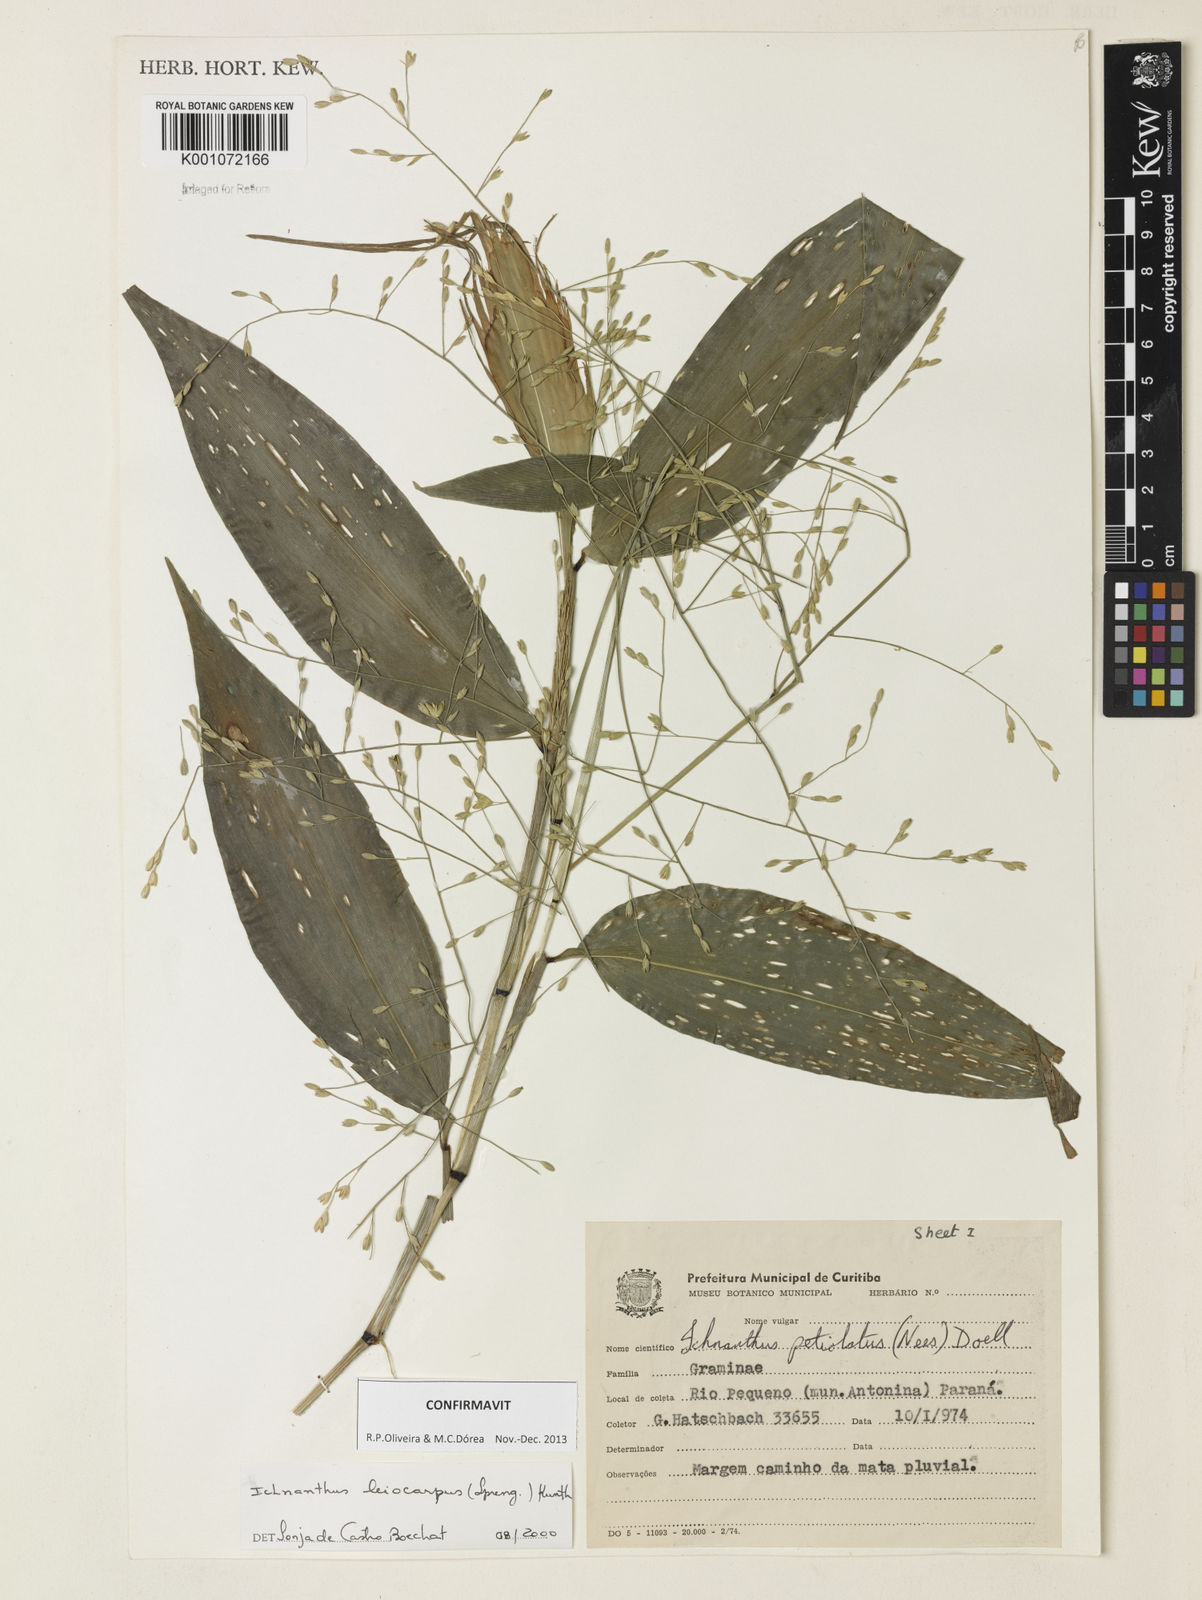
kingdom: Plantae
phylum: Tracheophyta
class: Liliopsida
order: Poales
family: Poaceae
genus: Ichnanthus
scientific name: Ichnanthus leiocarpus
